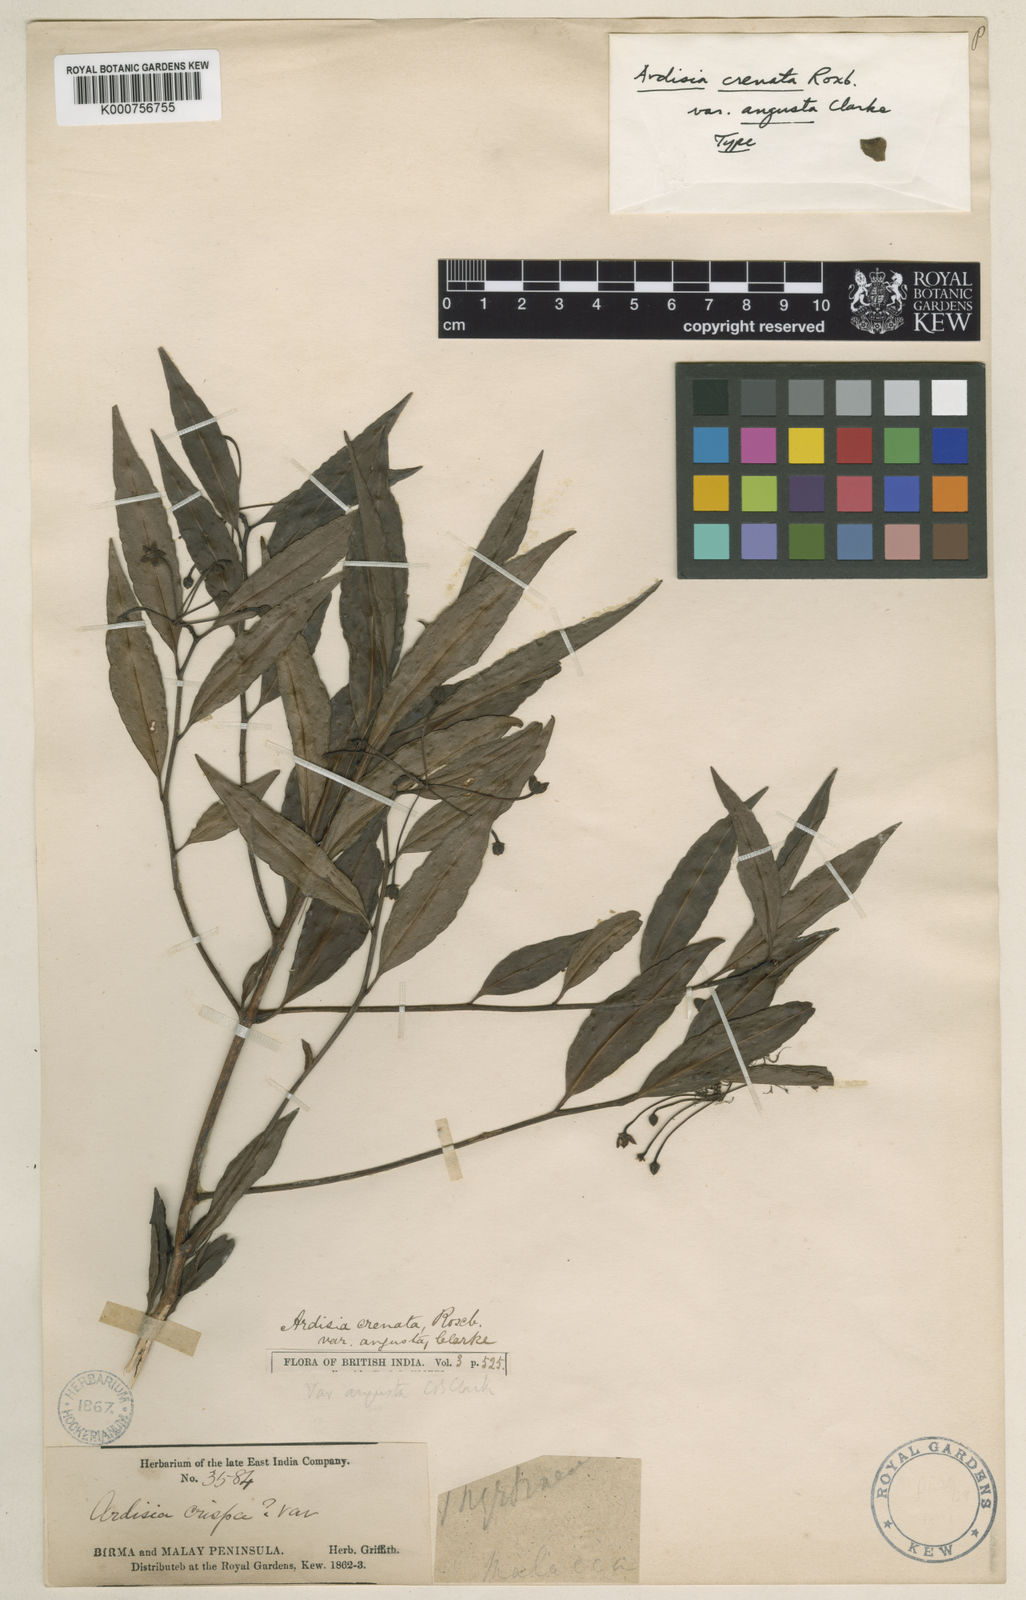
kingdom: Plantae
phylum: Tracheophyta
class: Magnoliopsida
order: Ericales
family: Primulaceae
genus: Ardisia
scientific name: Ardisia
